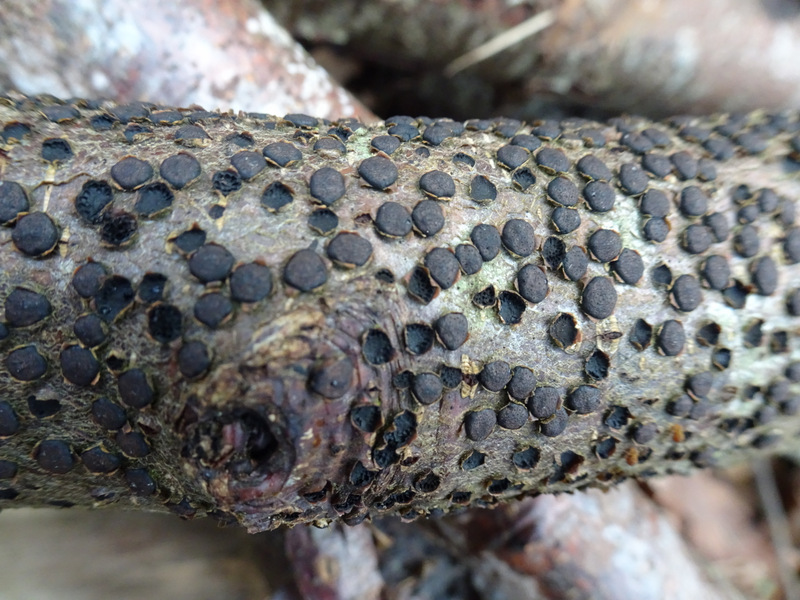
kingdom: Fungi
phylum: Ascomycota
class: Sordariomycetes
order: Xylariales
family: Diatrypaceae
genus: Diatrype
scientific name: Diatrype disciformis
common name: kant-kulskorpe
